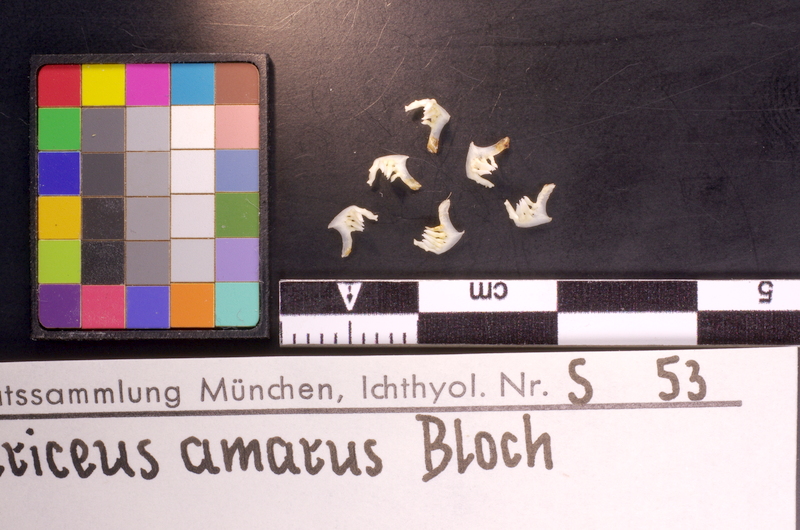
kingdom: Animalia
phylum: Chordata
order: Cypriniformes
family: Cyprinidae
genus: Rhodeus
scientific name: Rhodeus amarus
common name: Bitterling
